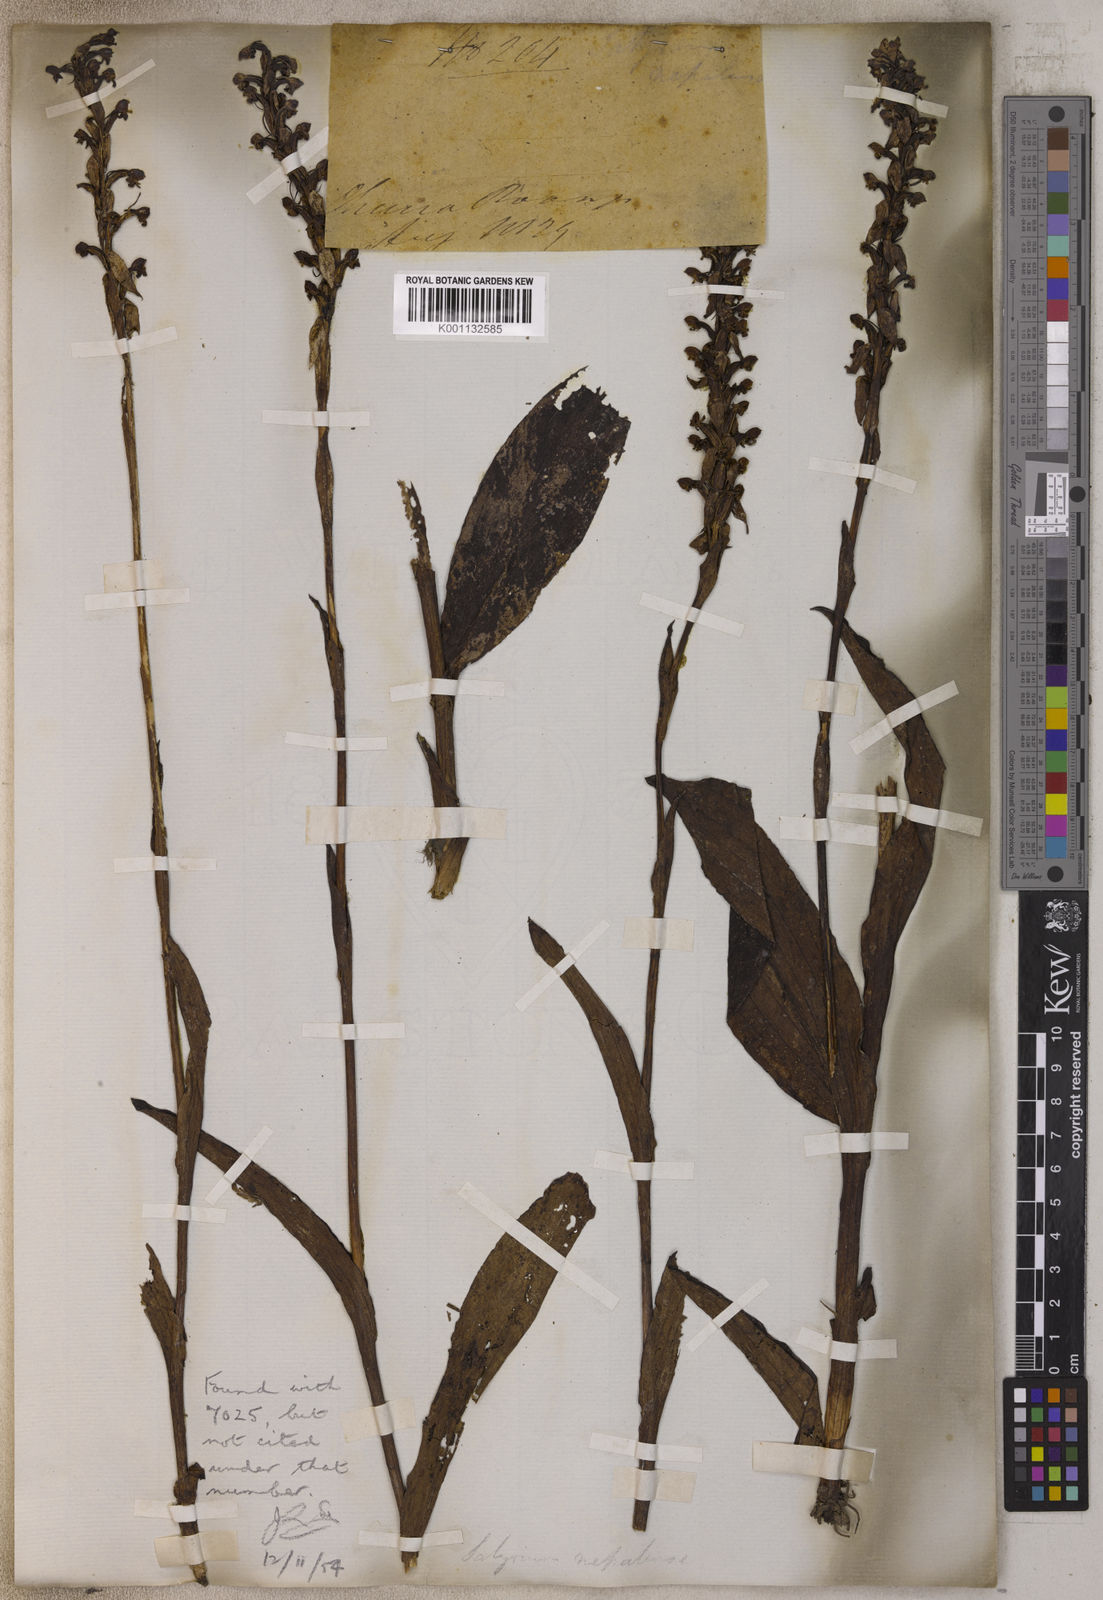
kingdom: Plantae
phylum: Tracheophyta
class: Liliopsida
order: Asparagales
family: Orchidaceae
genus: Satyrium
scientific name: Satyrium nepalense
